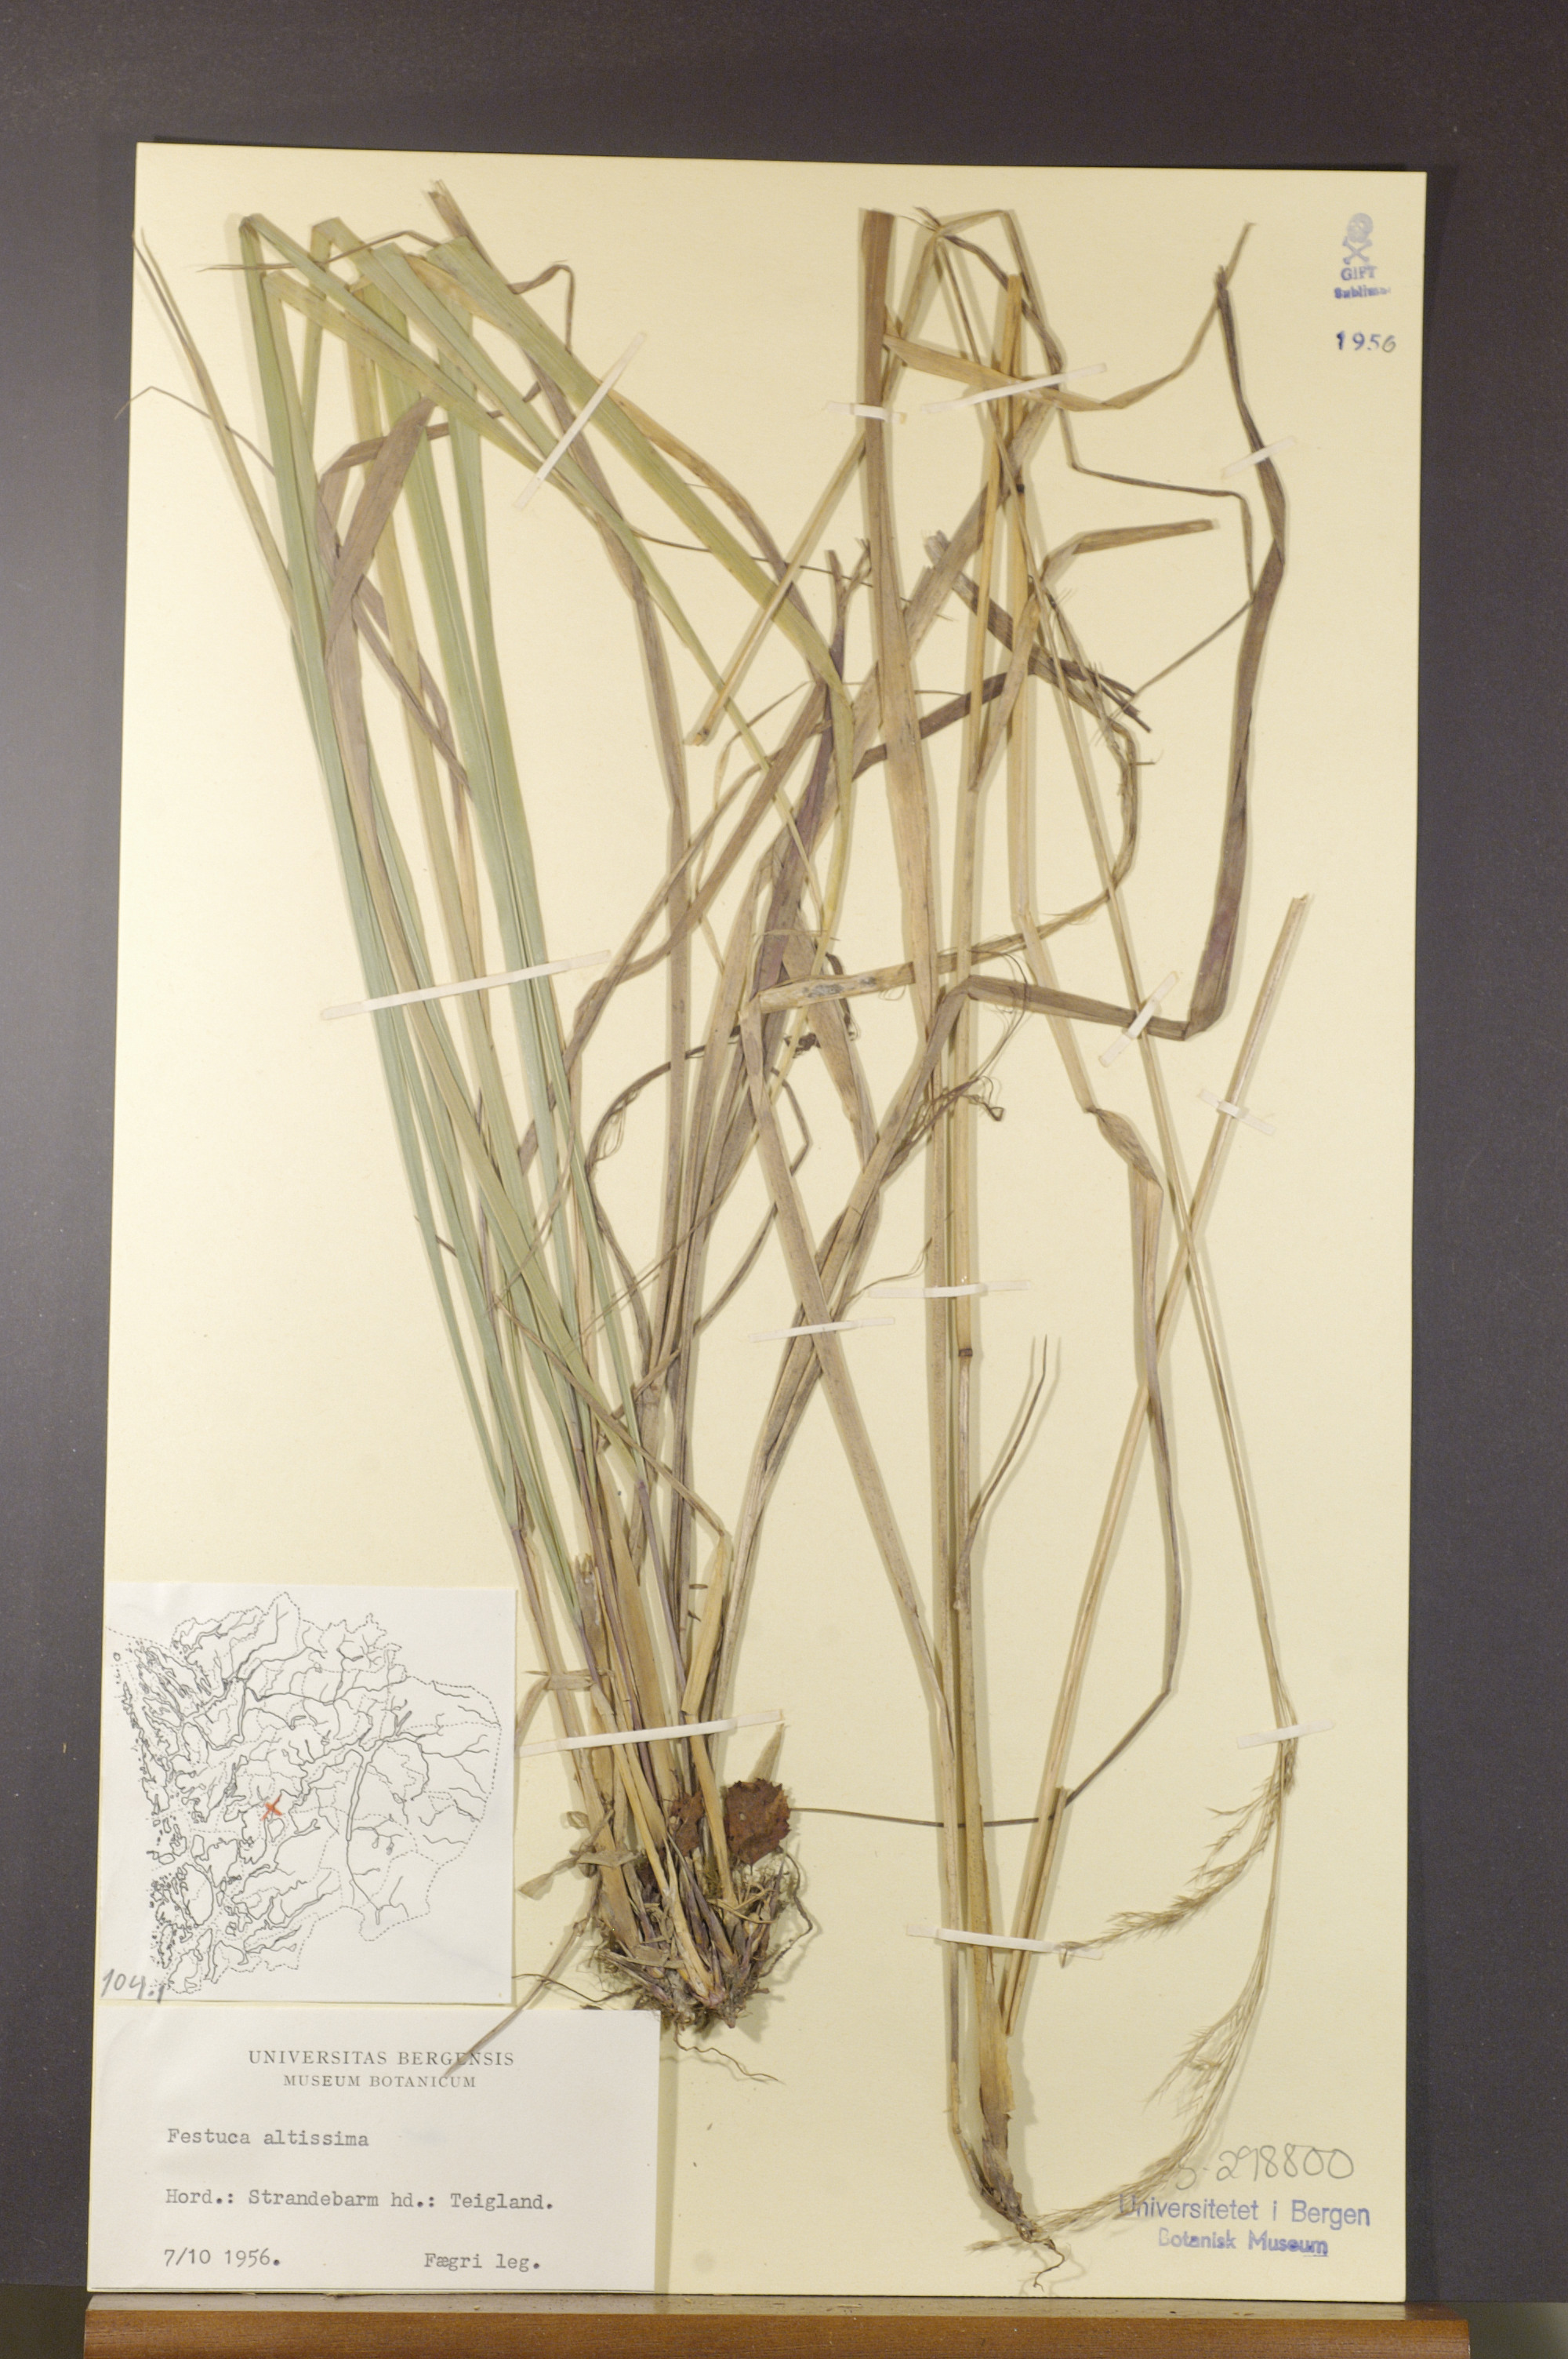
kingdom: Plantae
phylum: Tracheophyta
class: Liliopsida
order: Poales
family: Poaceae
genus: Festuca
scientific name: Festuca altissima
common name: Wood fescue
